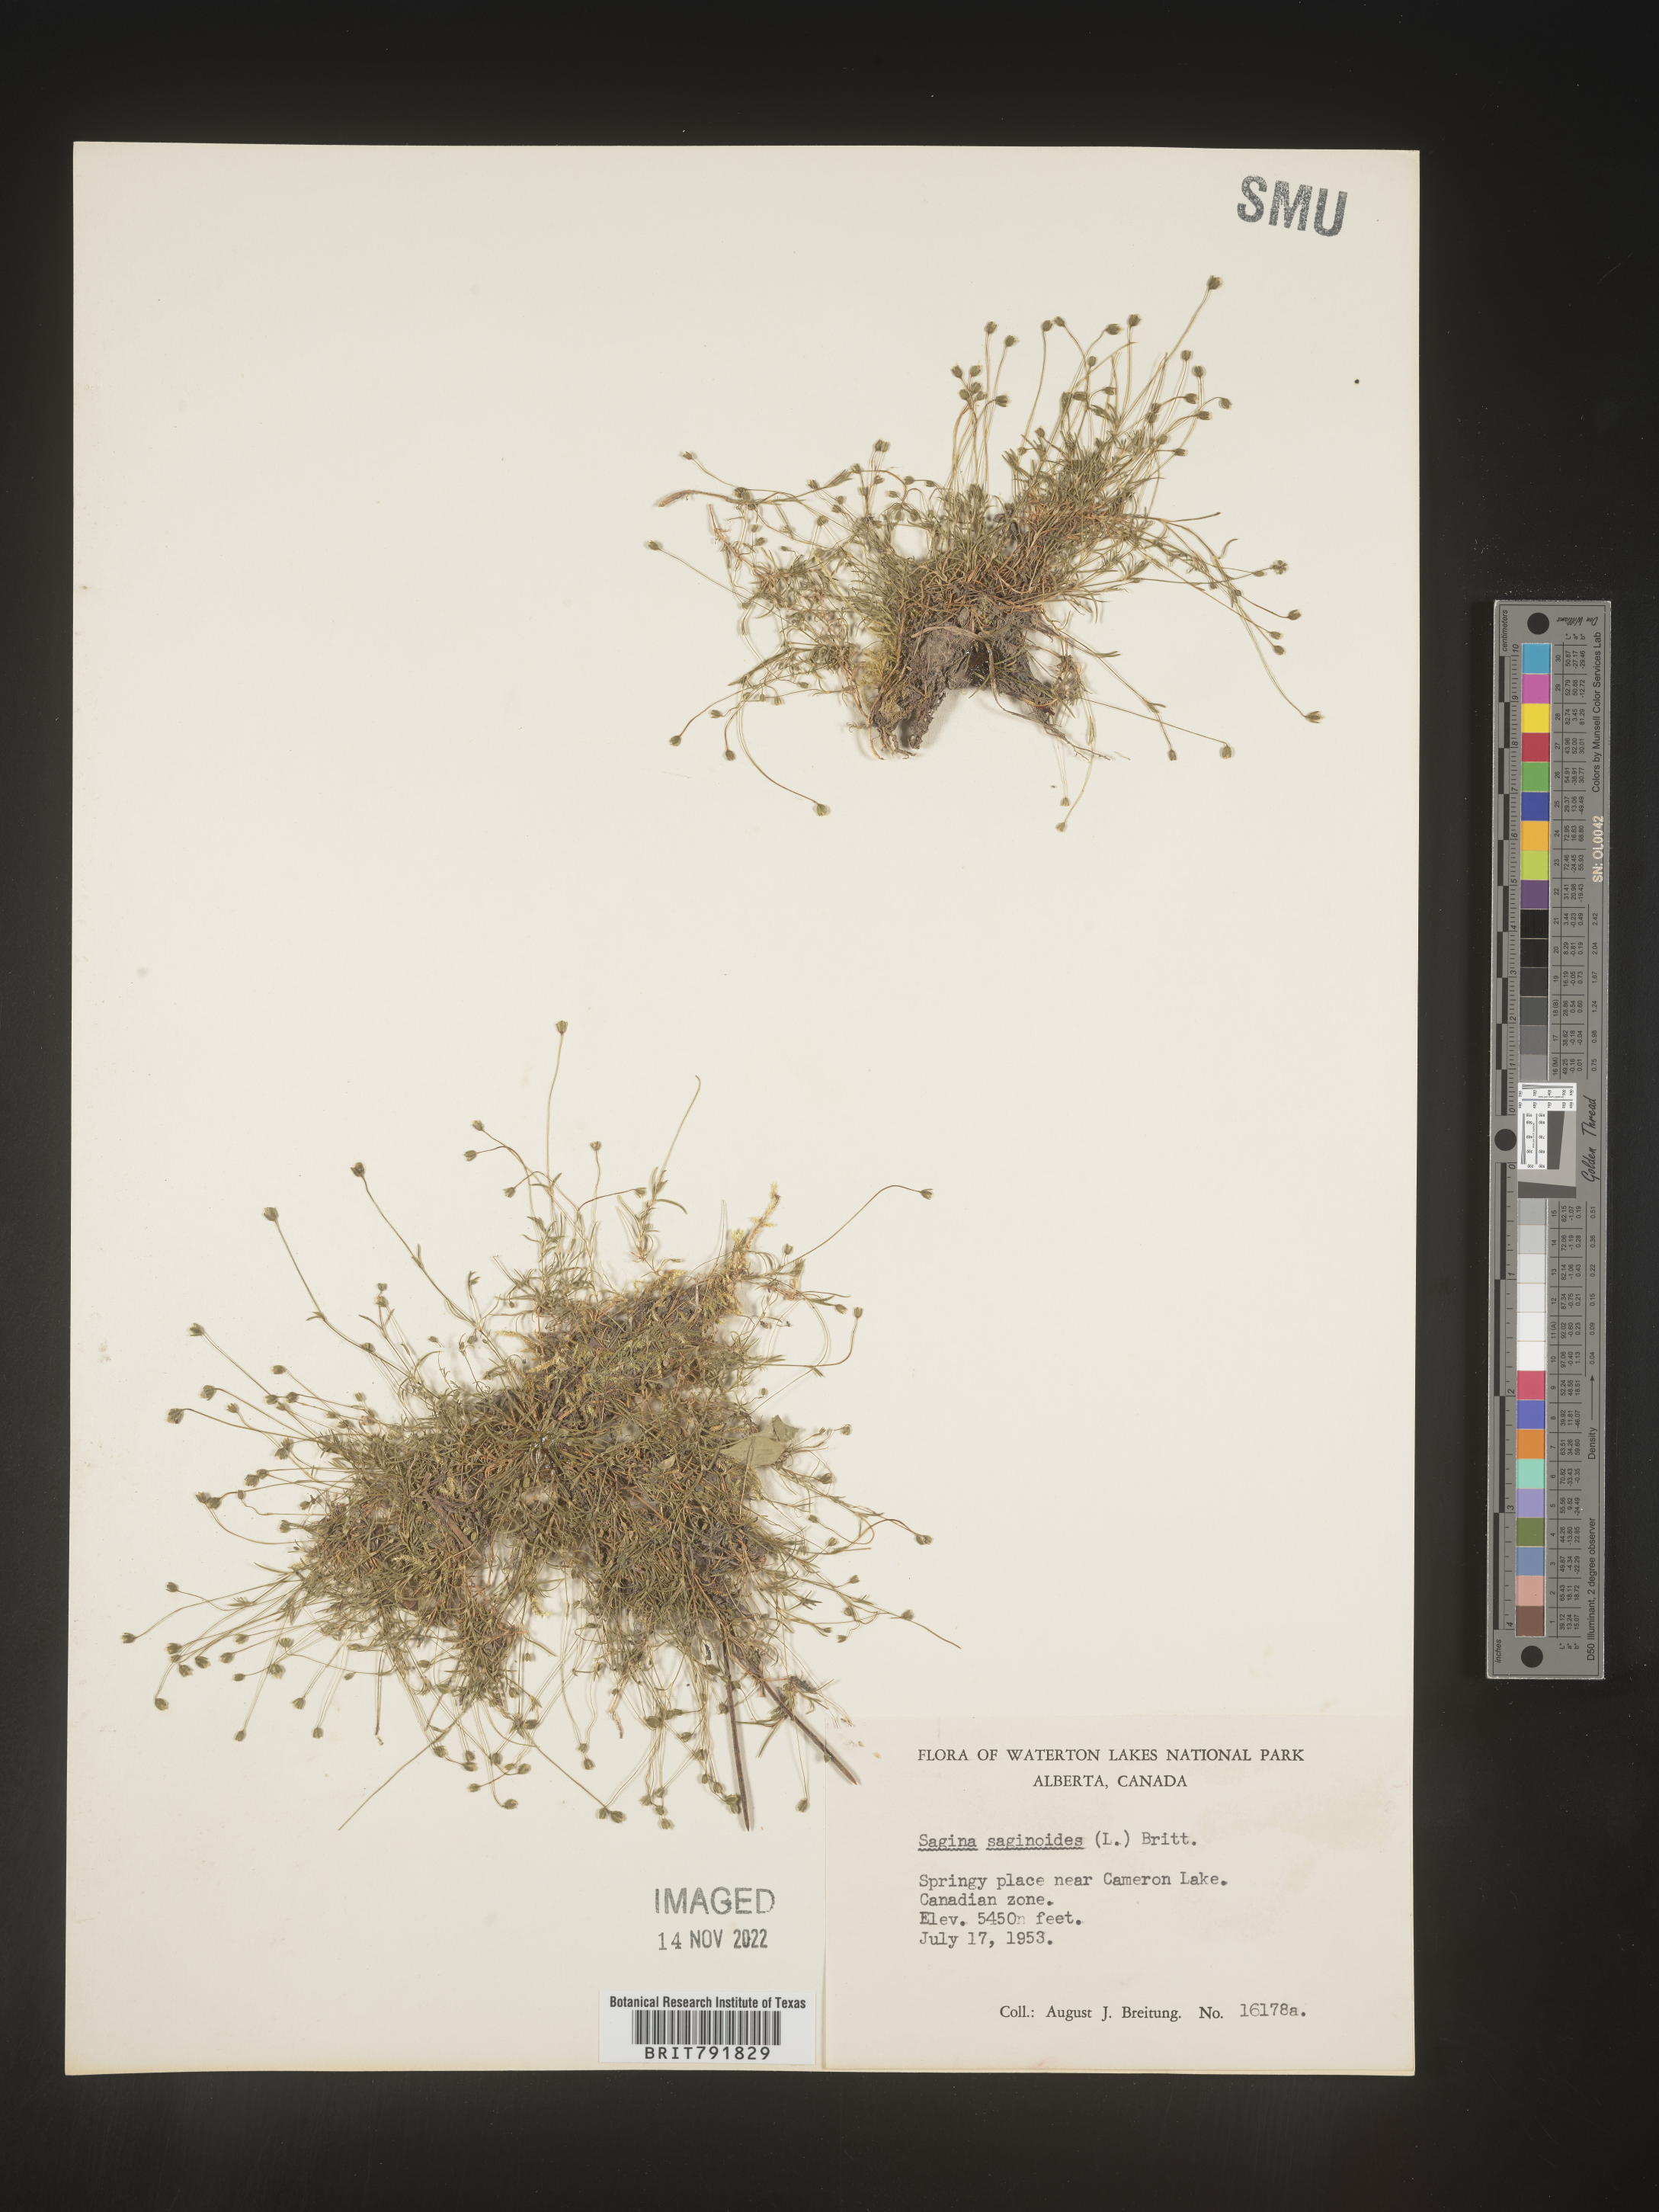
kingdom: Plantae
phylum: Tracheophyta
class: Magnoliopsida
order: Caryophyllales
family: Caryophyllaceae
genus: Sagina
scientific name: Sagina
